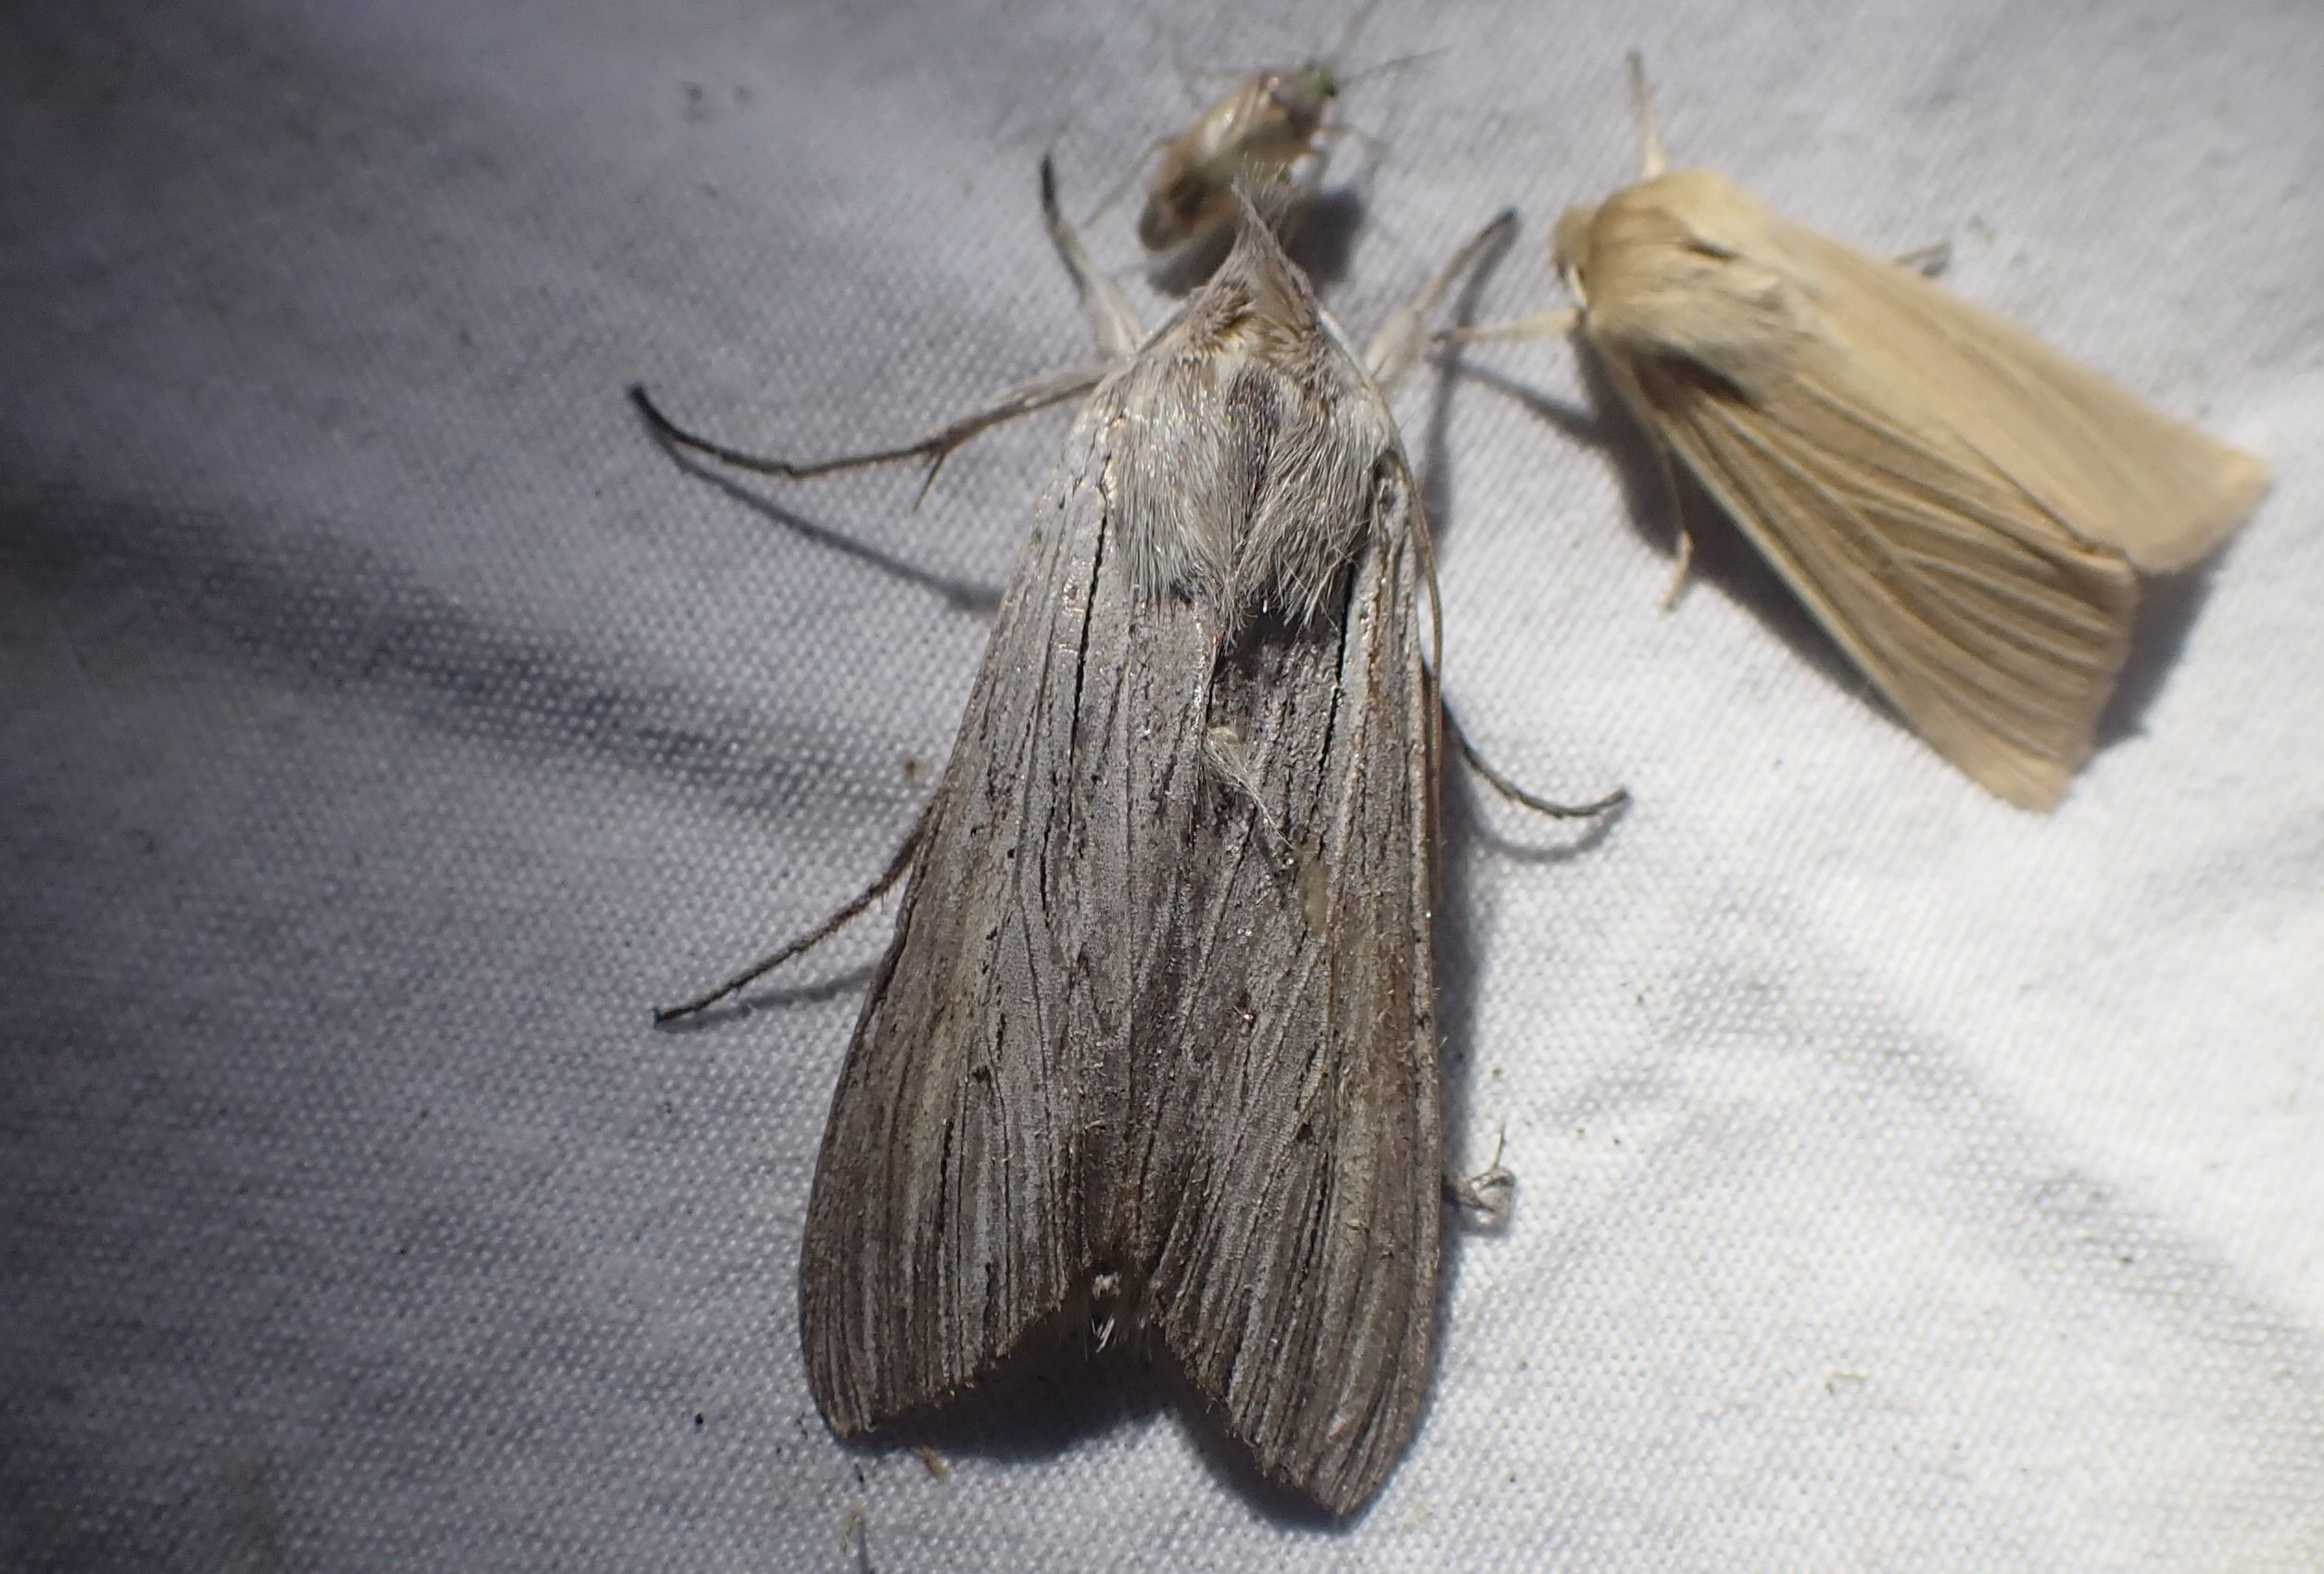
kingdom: Animalia
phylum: Arthropoda
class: Insecta
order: Lepidoptera
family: Noctuidae
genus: Cucullia
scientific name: Cucullia umbratica
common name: Grå hætteugle
